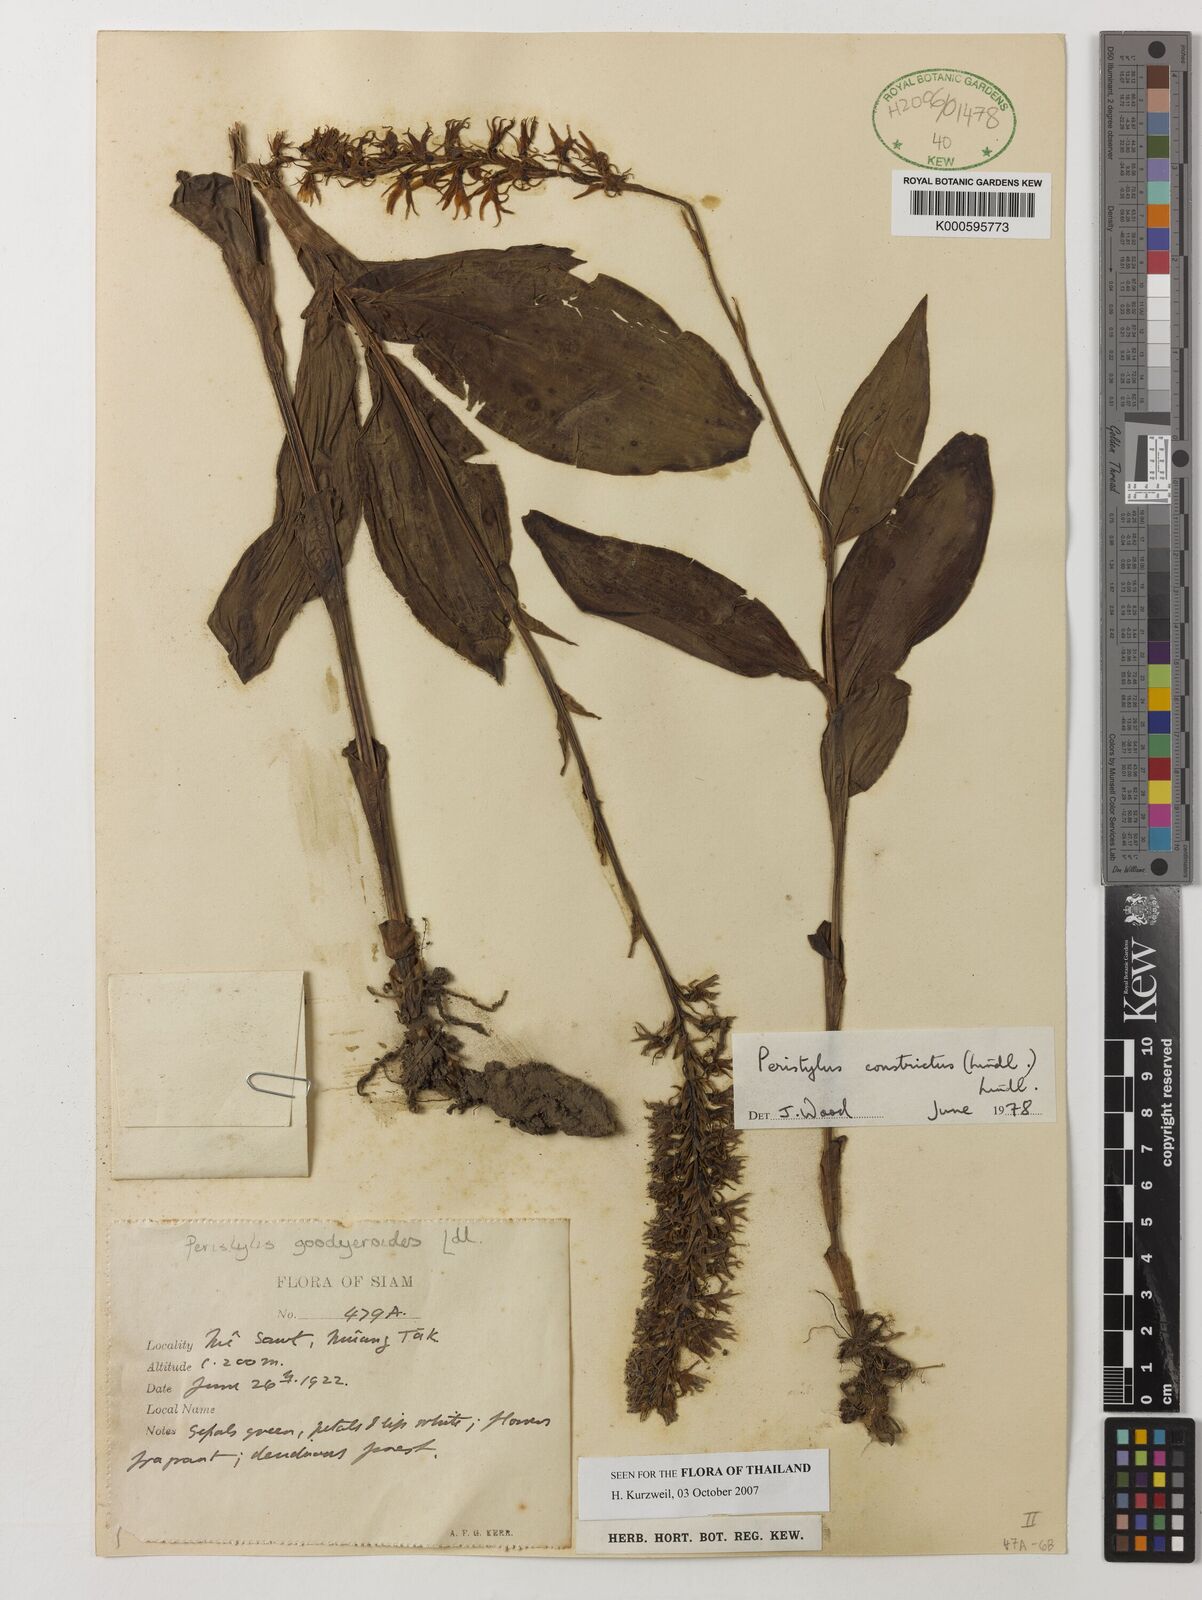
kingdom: Plantae
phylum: Tracheophyta
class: Liliopsida
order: Asparagales
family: Orchidaceae
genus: Peristylus
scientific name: Peristylus constrictus
